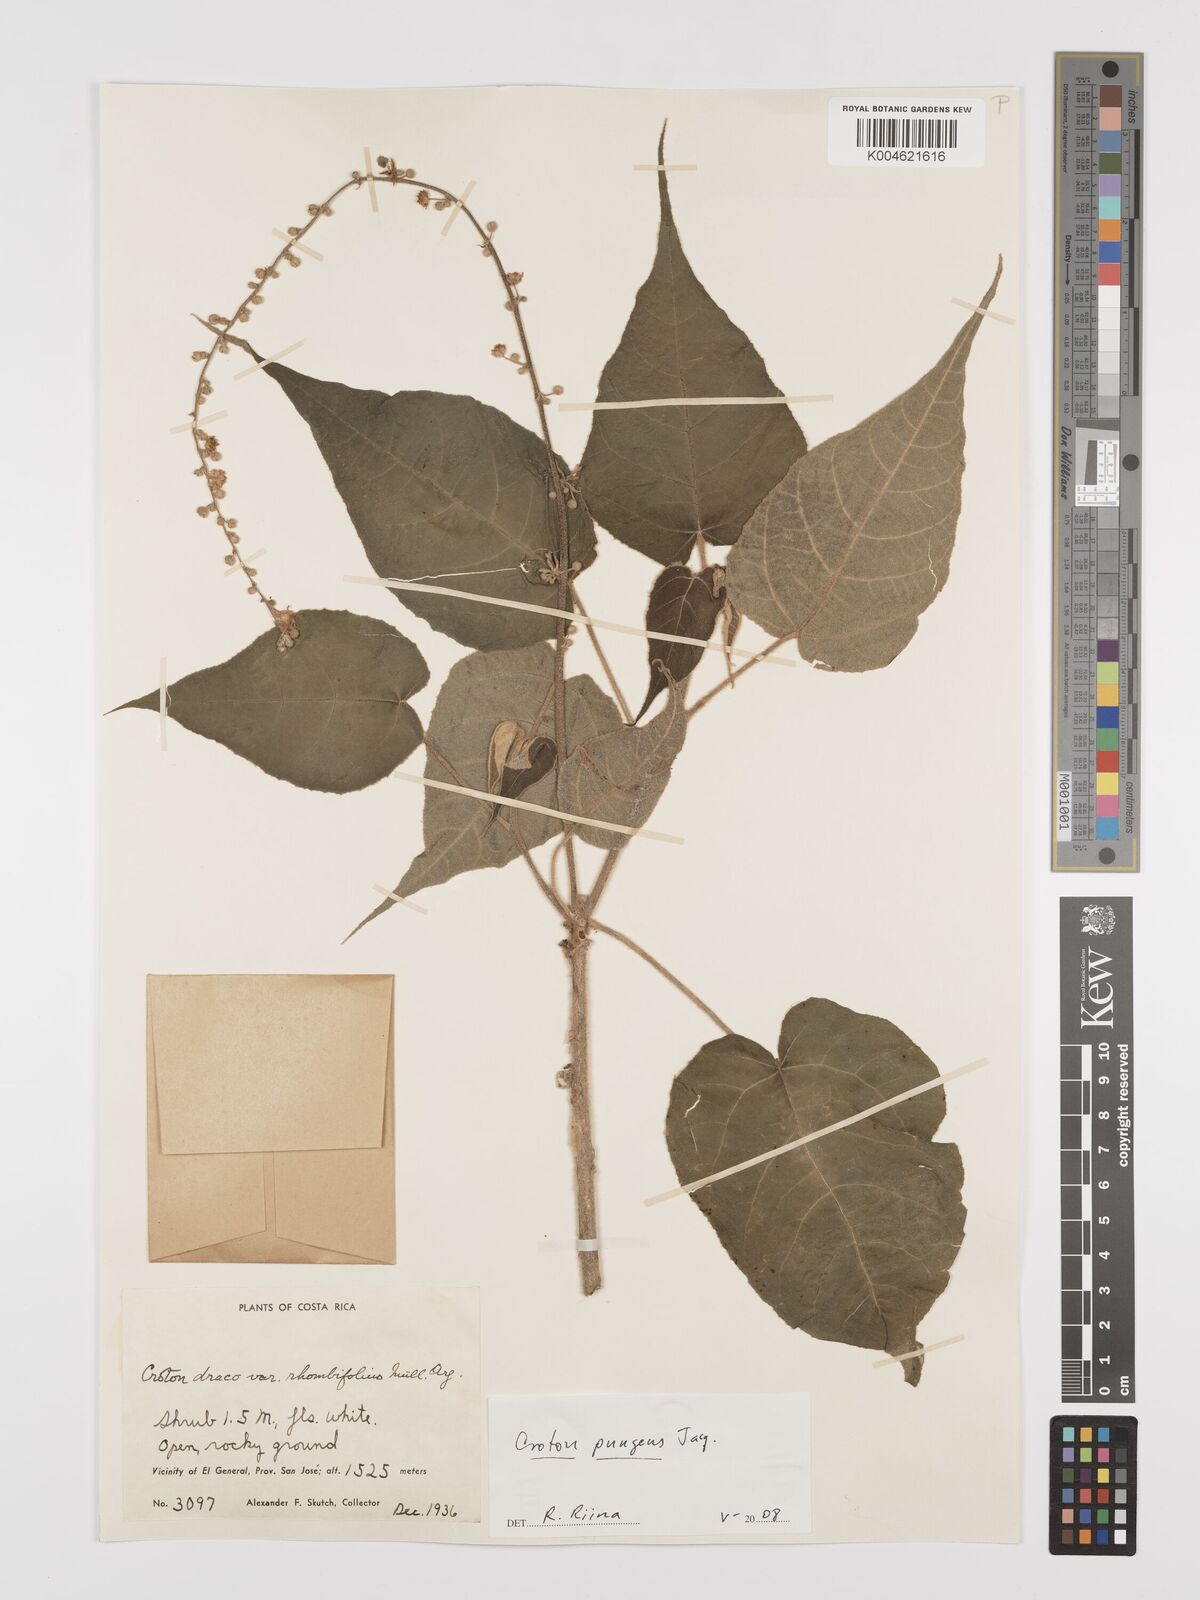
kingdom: Plantae
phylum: Tracheophyta
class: Magnoliopsida
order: Malpighiales
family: Euphorbiaceae
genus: Croton
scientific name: Croton pungens
